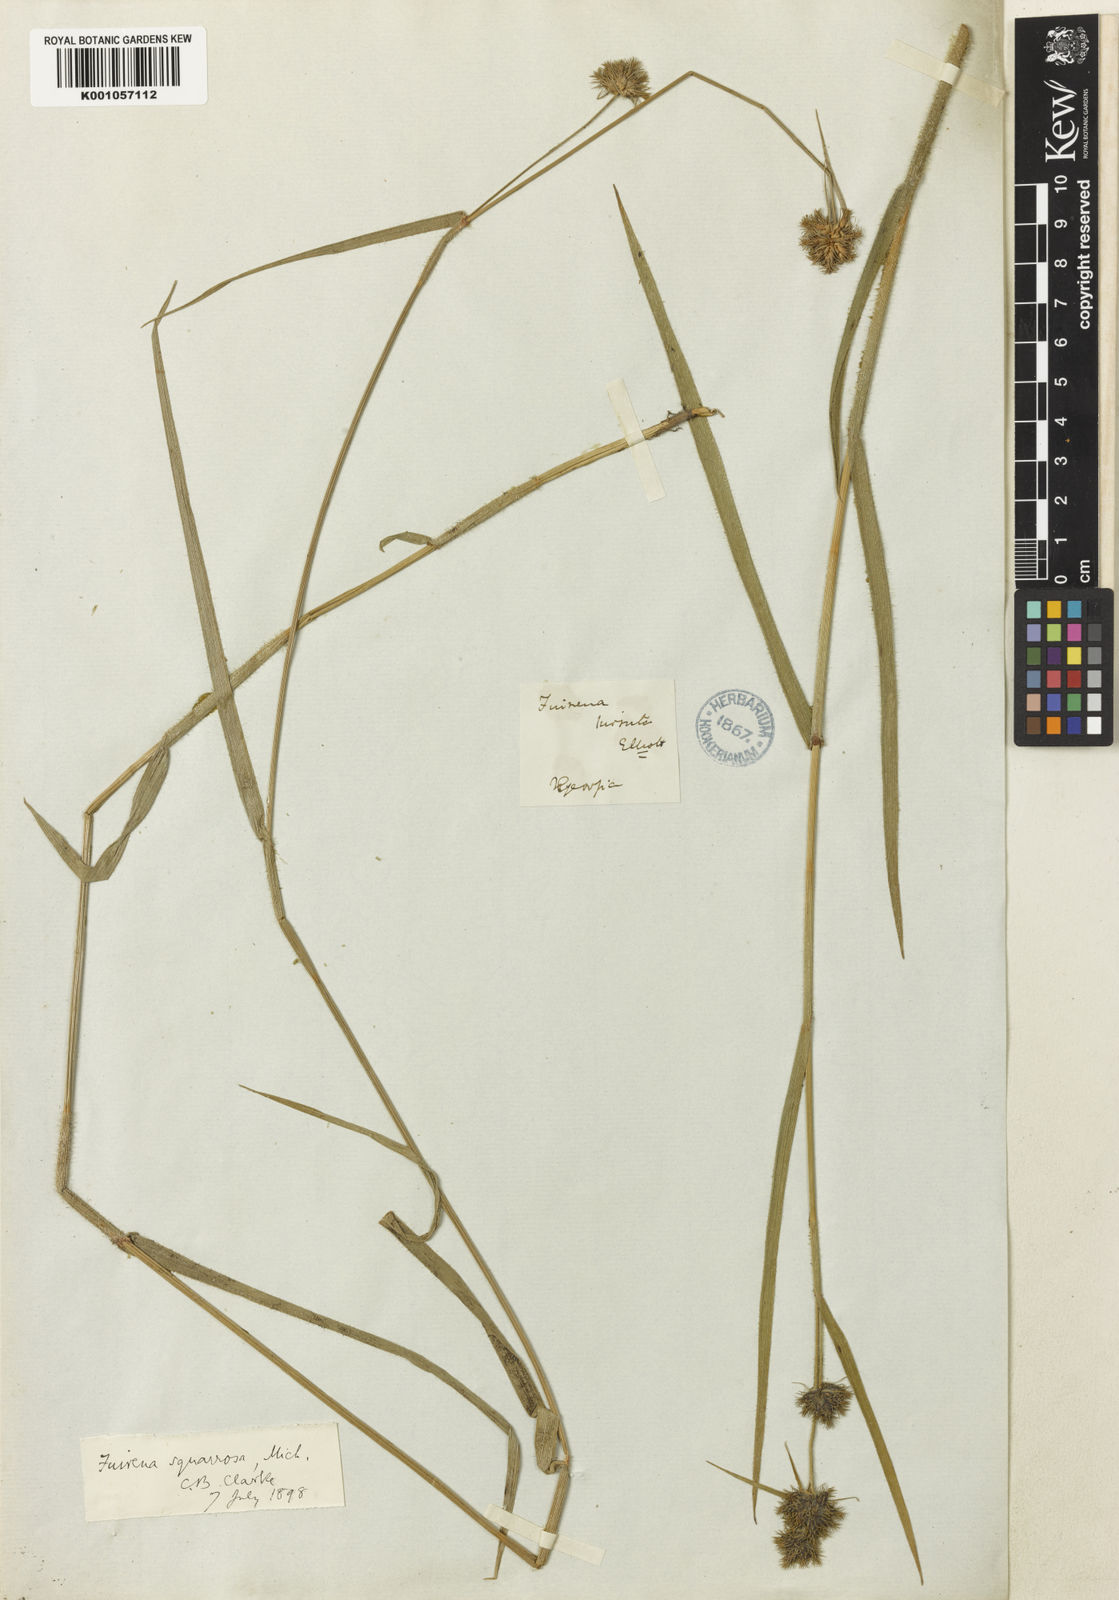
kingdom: Plantae
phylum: Tracheophyta
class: Liliopsida
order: Poales
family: Cyperaceae
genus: Fuirena
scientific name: Fuirena squarrosa
